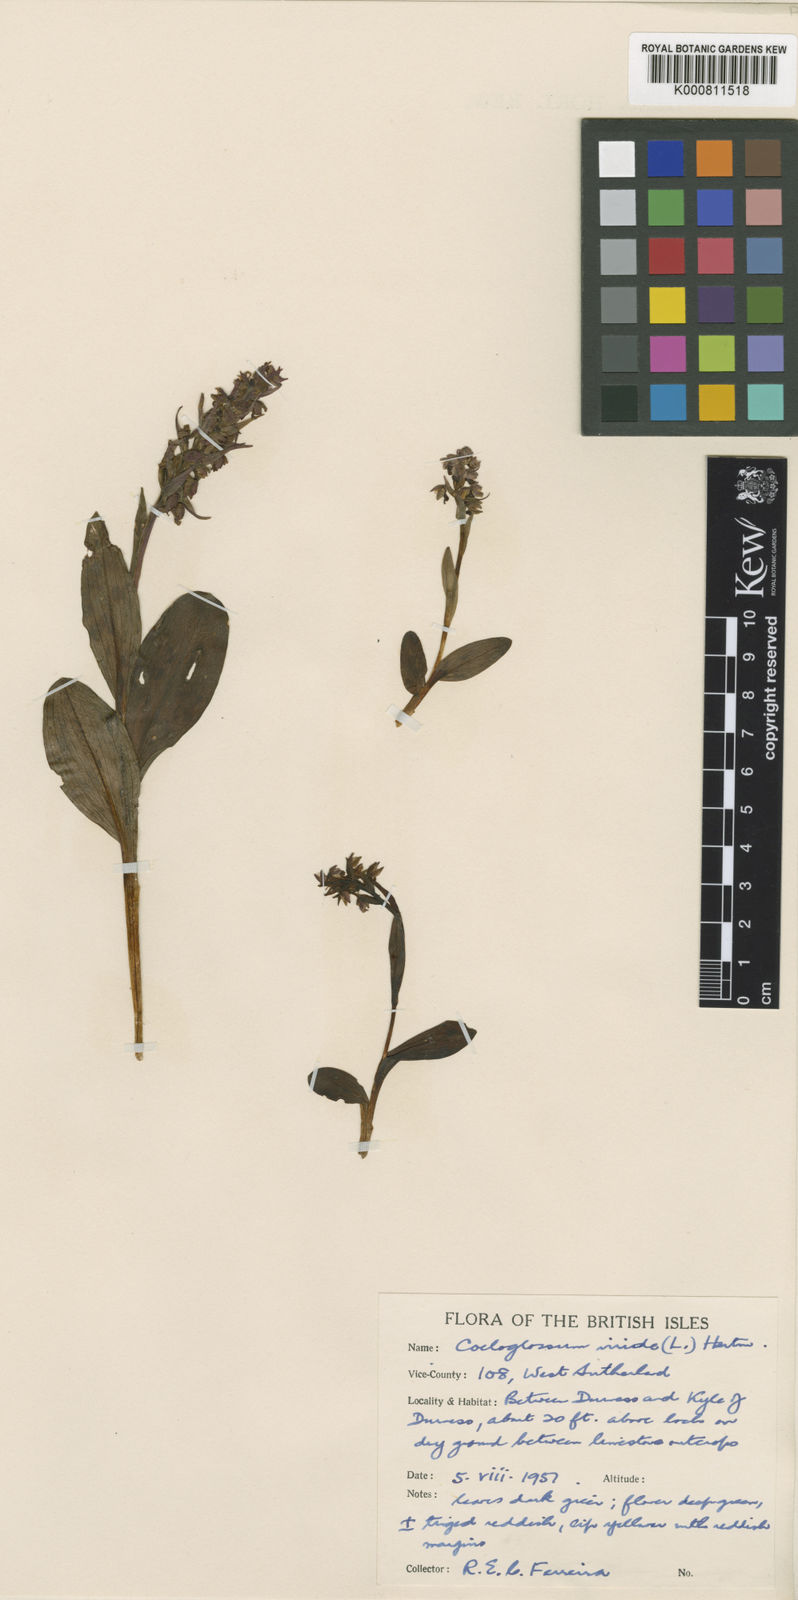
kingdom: Plantae
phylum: Tracheophyta
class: Liliopsida
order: Asparagales
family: Orchidaceae
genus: Dactylorhiza
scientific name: Dactylorhiza viridis
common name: Longbract frog orchid
